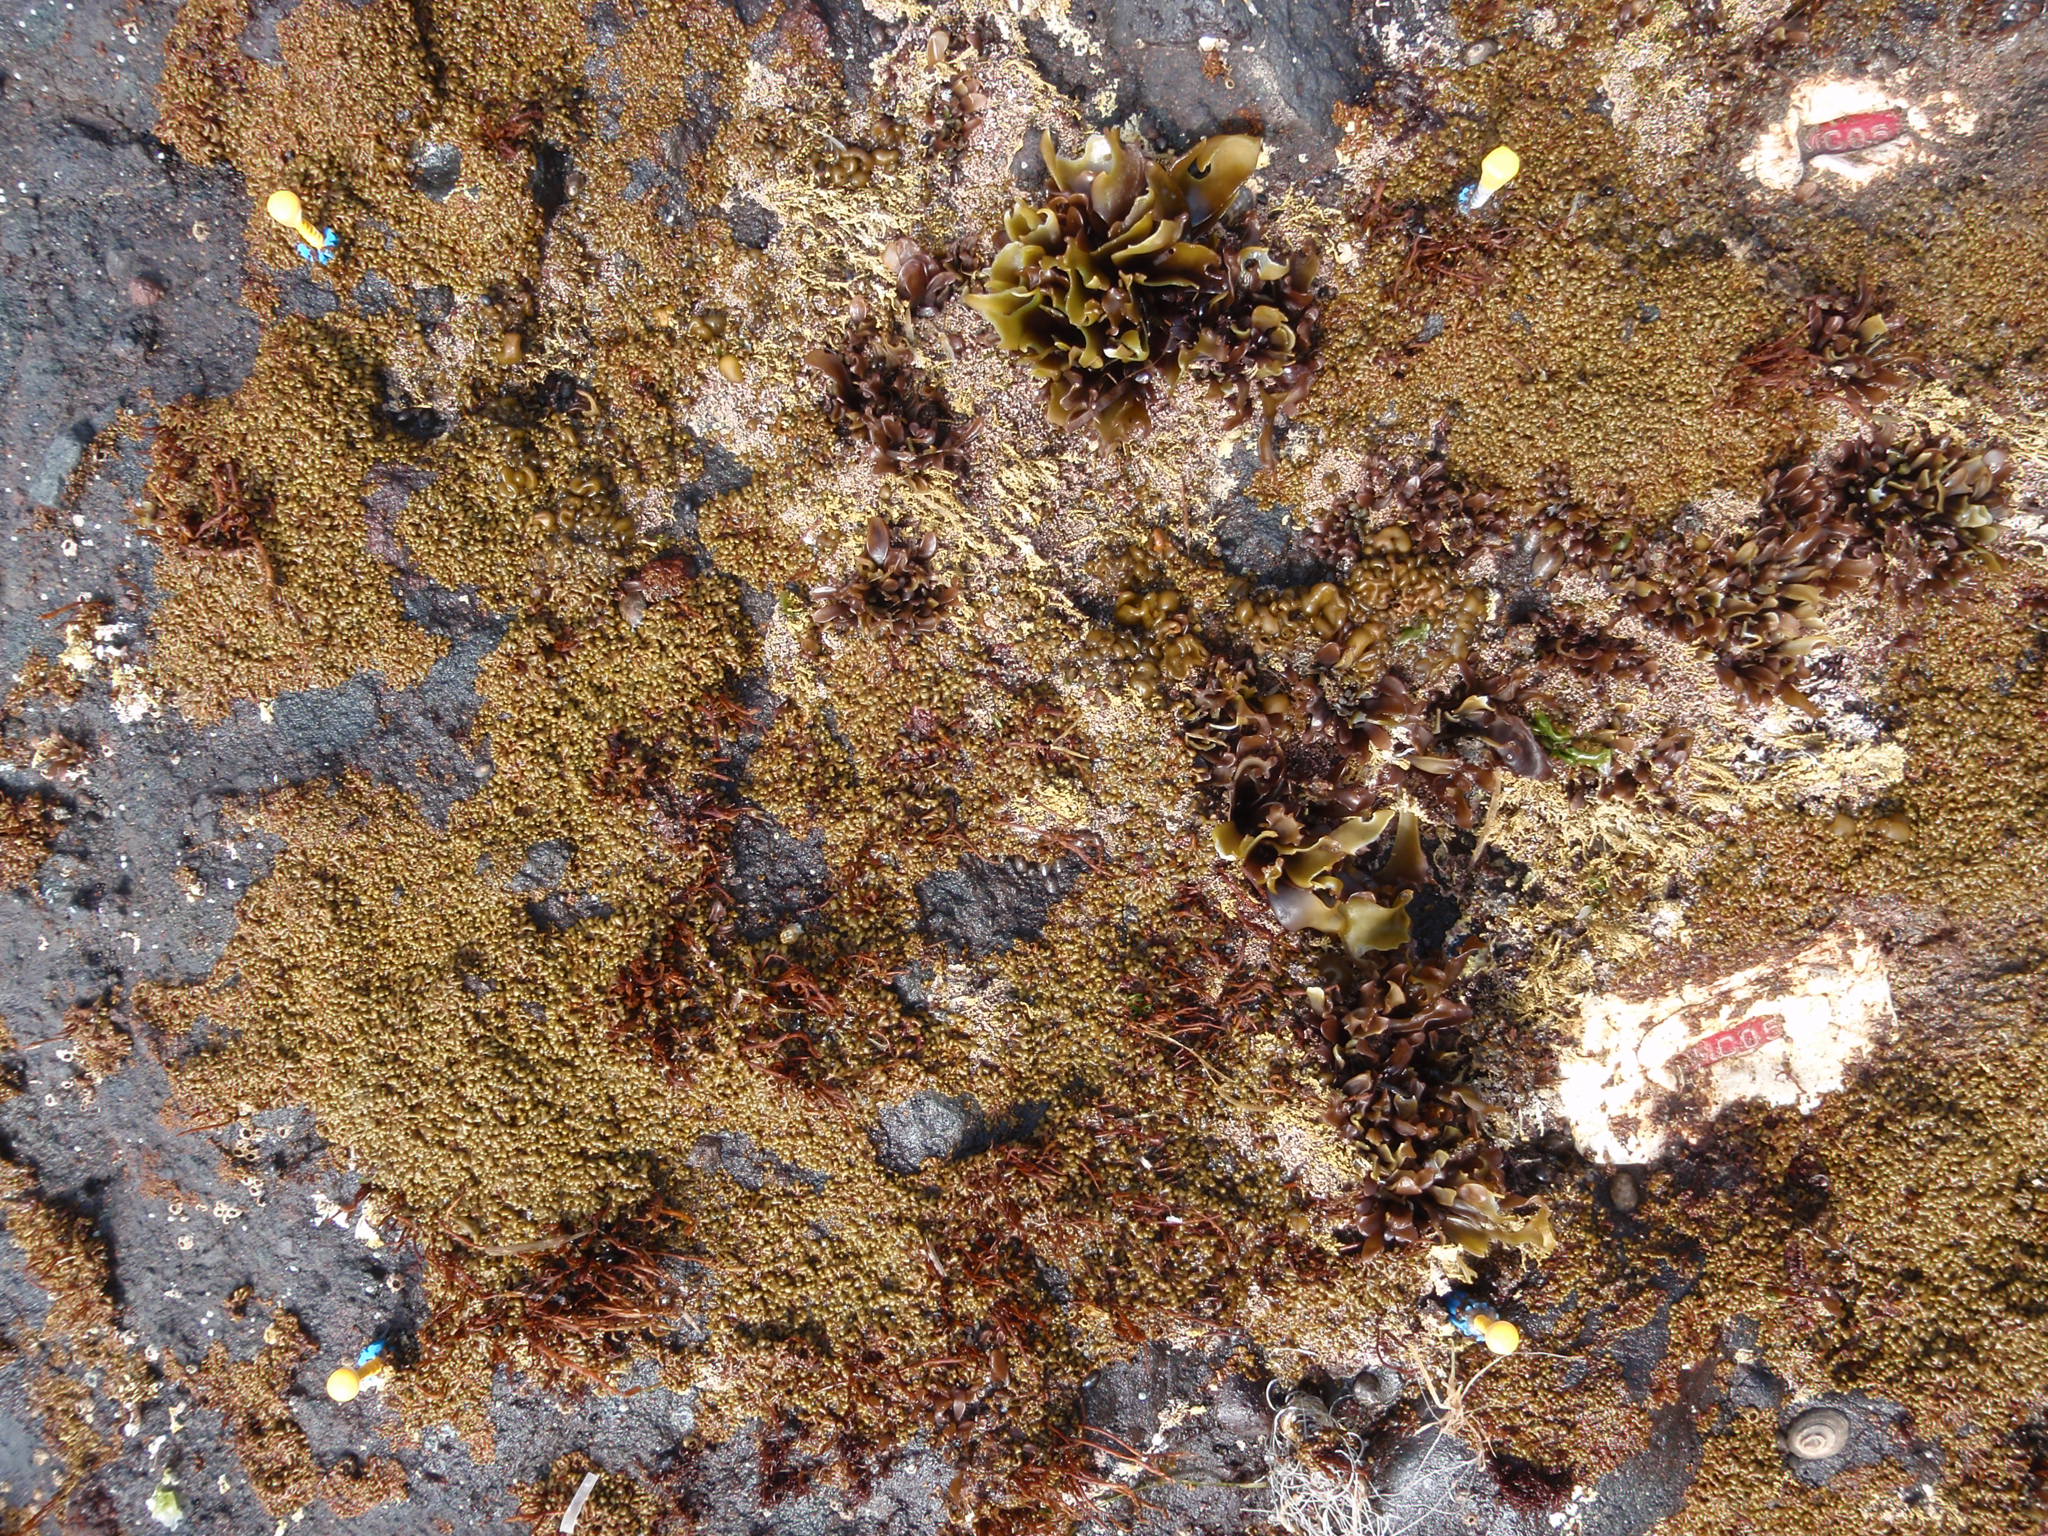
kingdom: Plantae
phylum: Rhodophyta
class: Florideophyceae
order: Gigartinales
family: Endocladiaceae
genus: Gloiopeltis
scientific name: Gloiopeltis furcata
